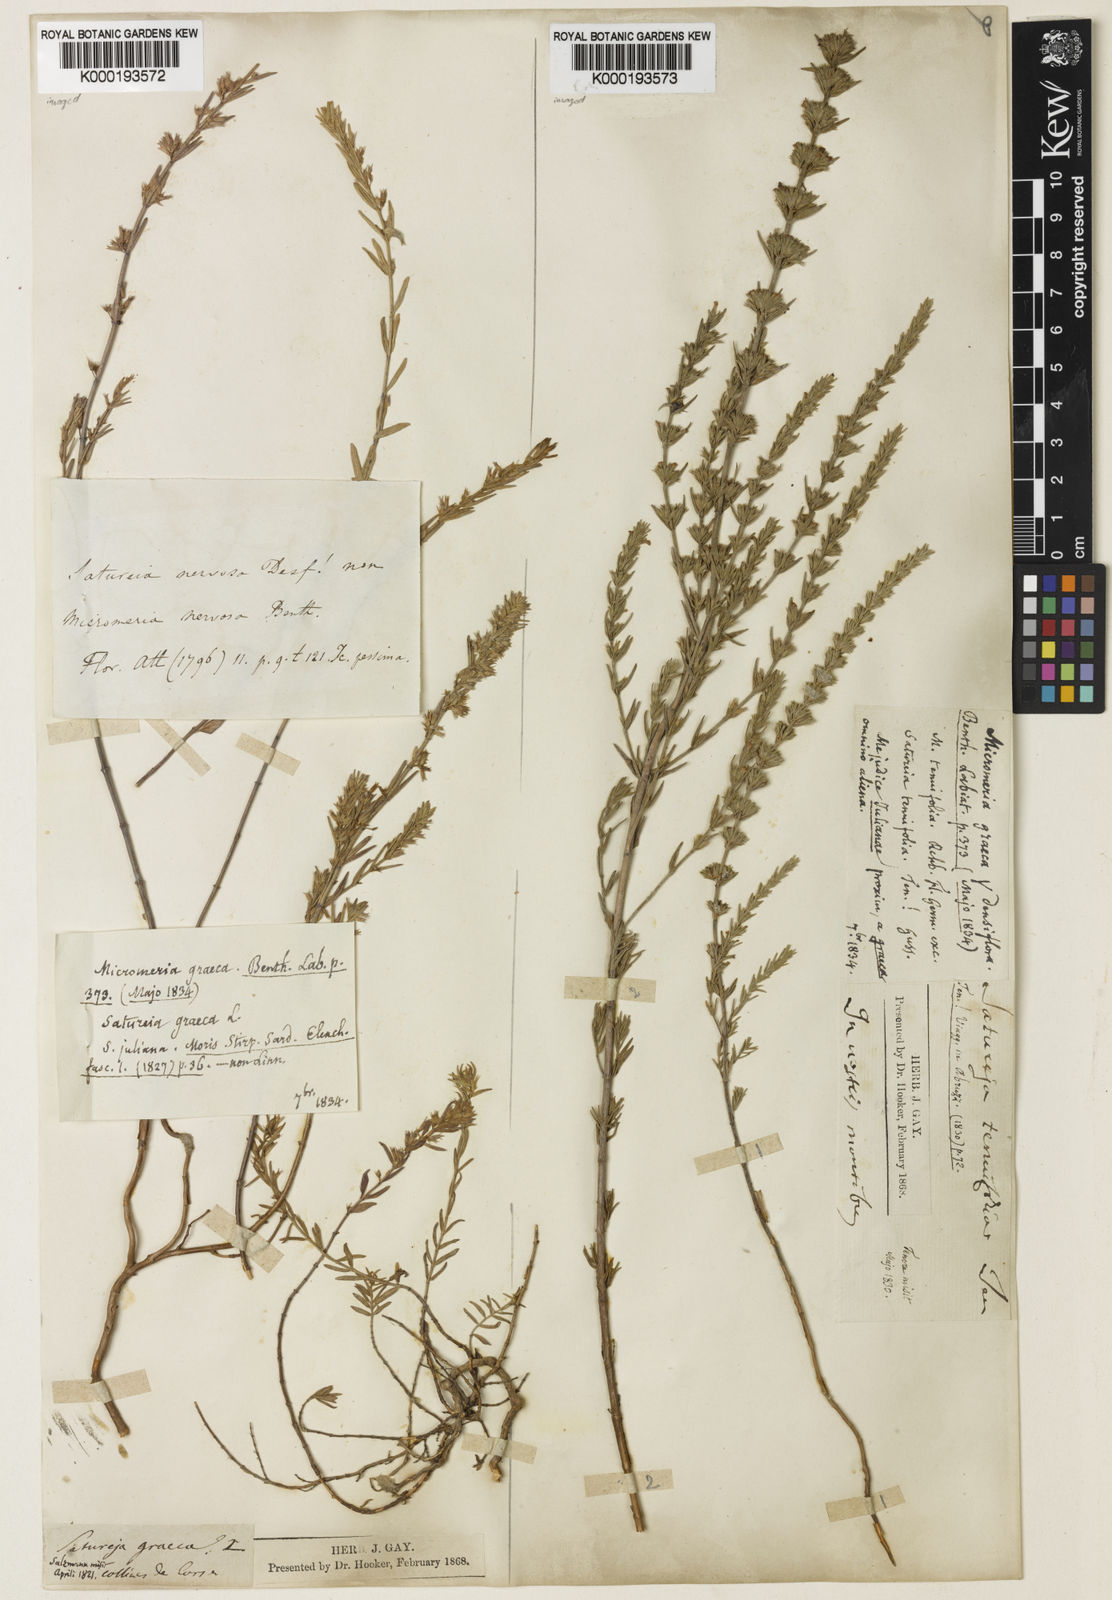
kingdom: Plantae
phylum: Tracheophyta
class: Magnoliopsida
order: Lamiales
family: Lamiaceae
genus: Micromeria
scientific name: Micromeria graeca
